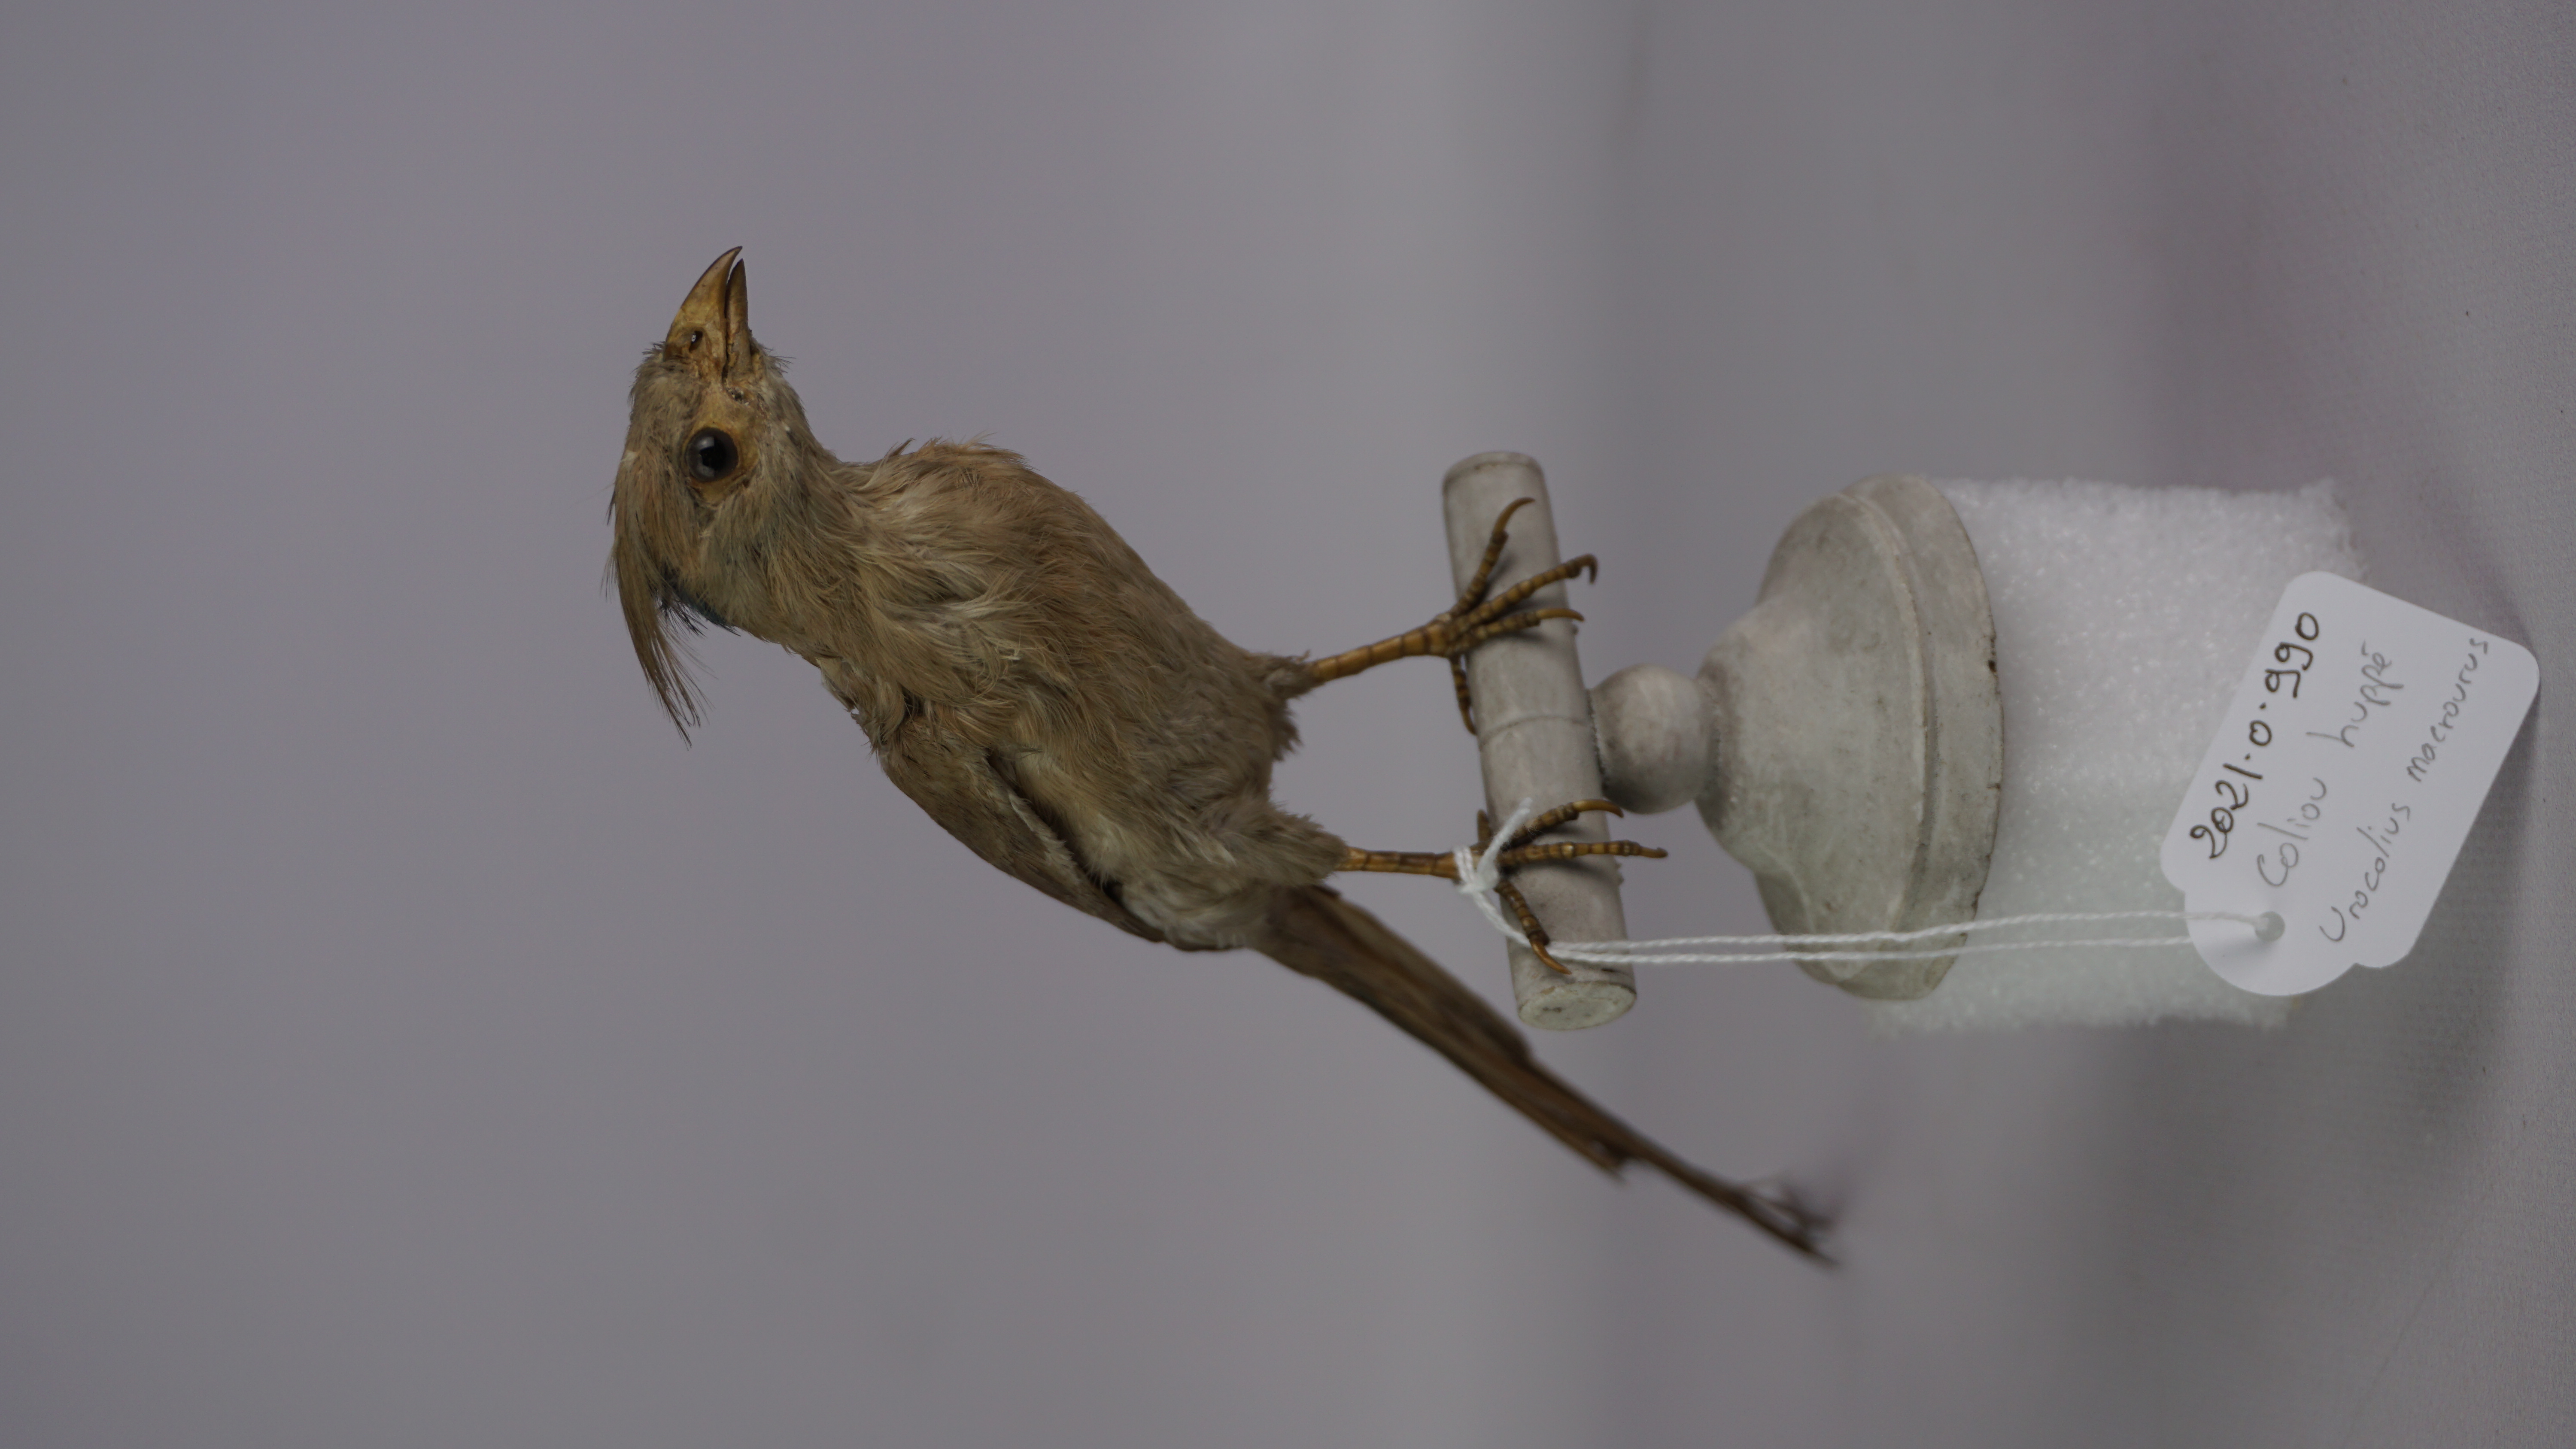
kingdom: Animalia
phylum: Chordata
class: Aves
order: Coliiformes
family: Coliidae
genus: Urocolius
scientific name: Urocolius macrourus
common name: Blue-naped mousebird
